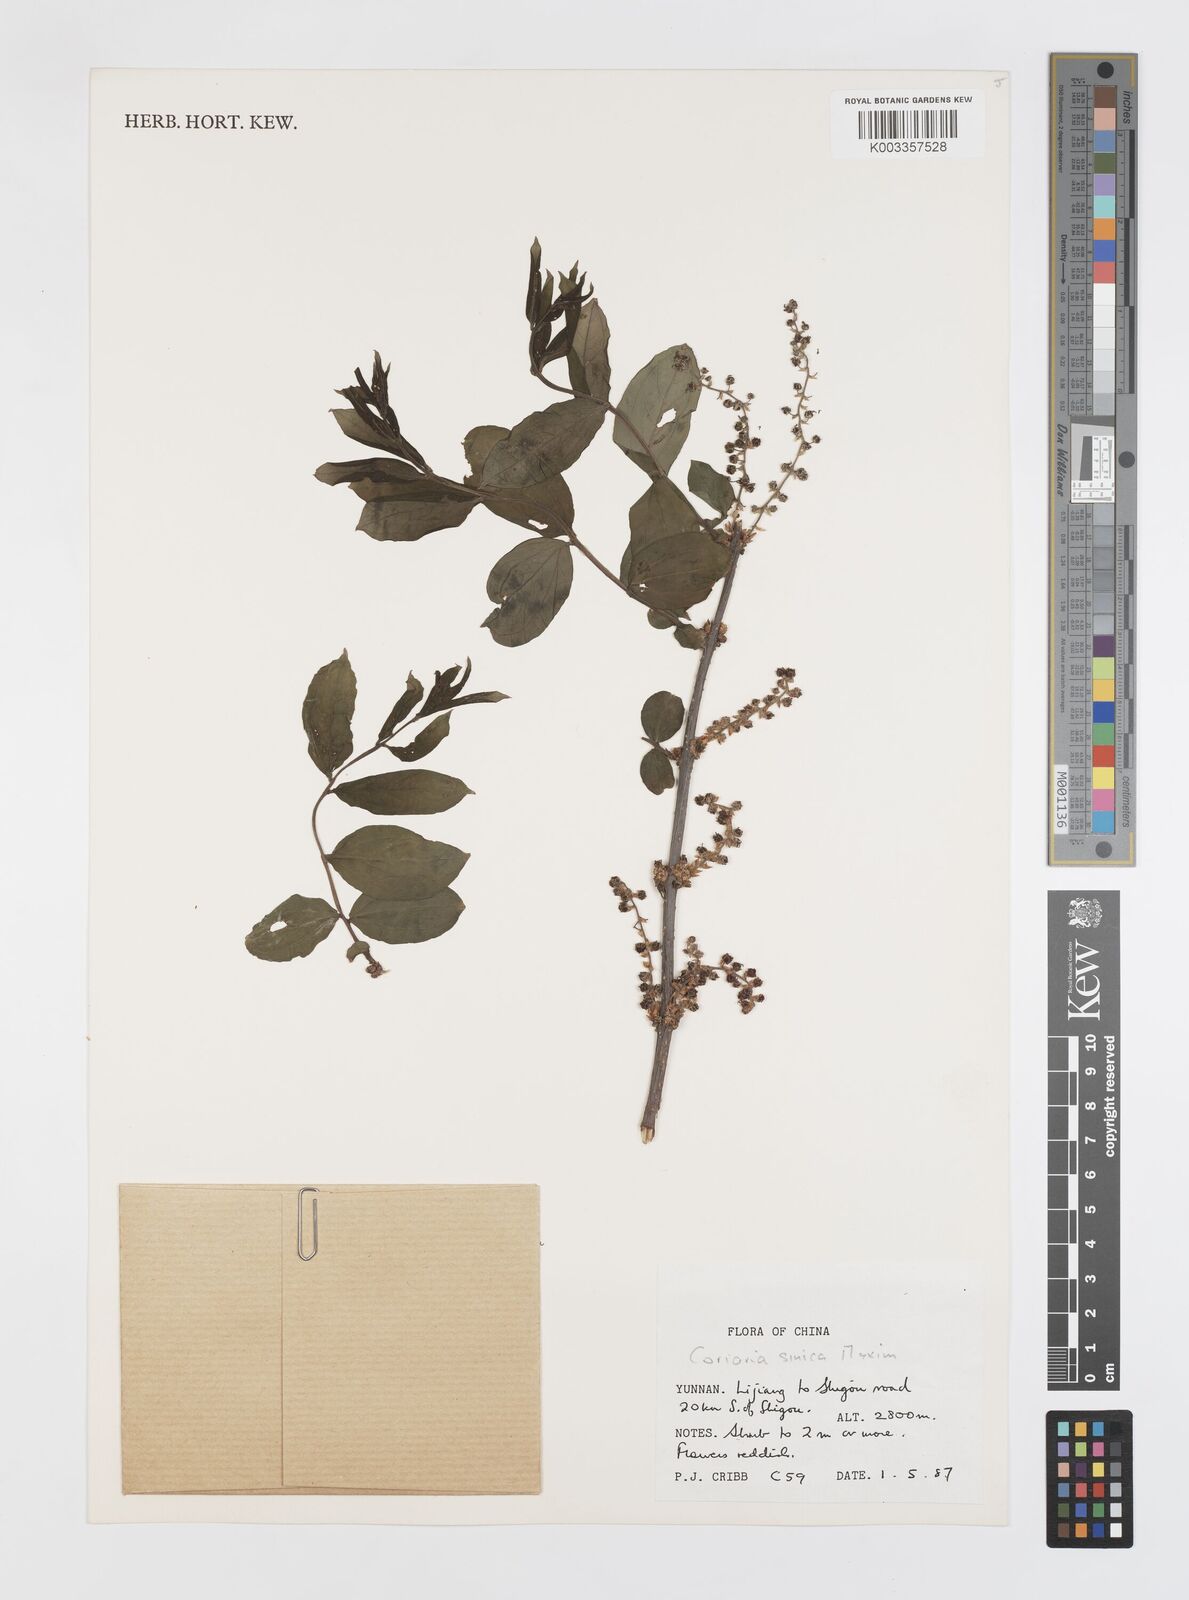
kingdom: Plantae
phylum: Tracheophyta
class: Magnoliopsida
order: Cucurbitales
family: Coriariaceae
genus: Coriaria
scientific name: Coriaria napalensis
